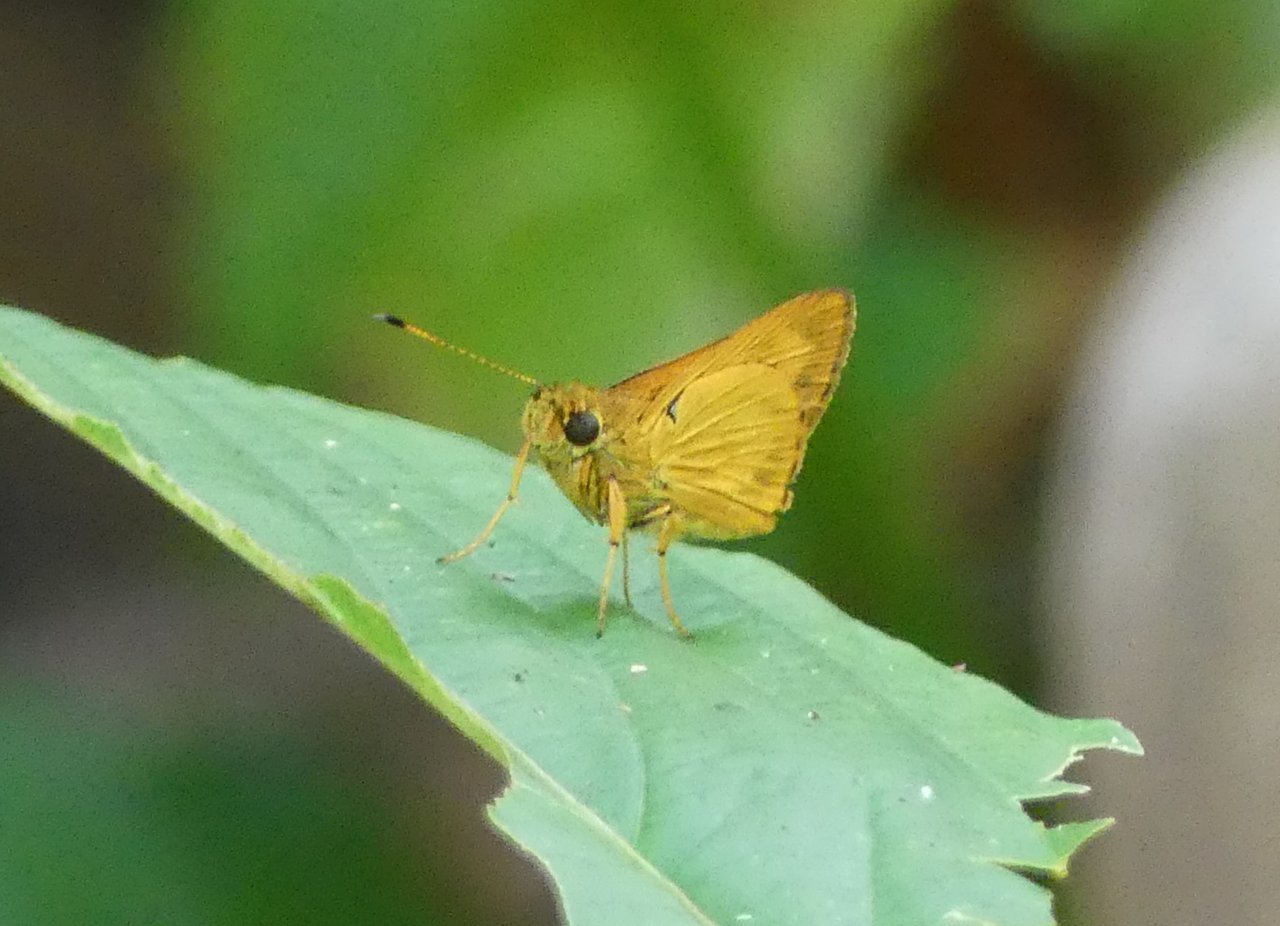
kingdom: Animalia
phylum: Arthropoda
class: Insecta
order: Lepidoptera
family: Hesperiidae
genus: Mellana
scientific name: Mellana eulogius
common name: Common Mellana
